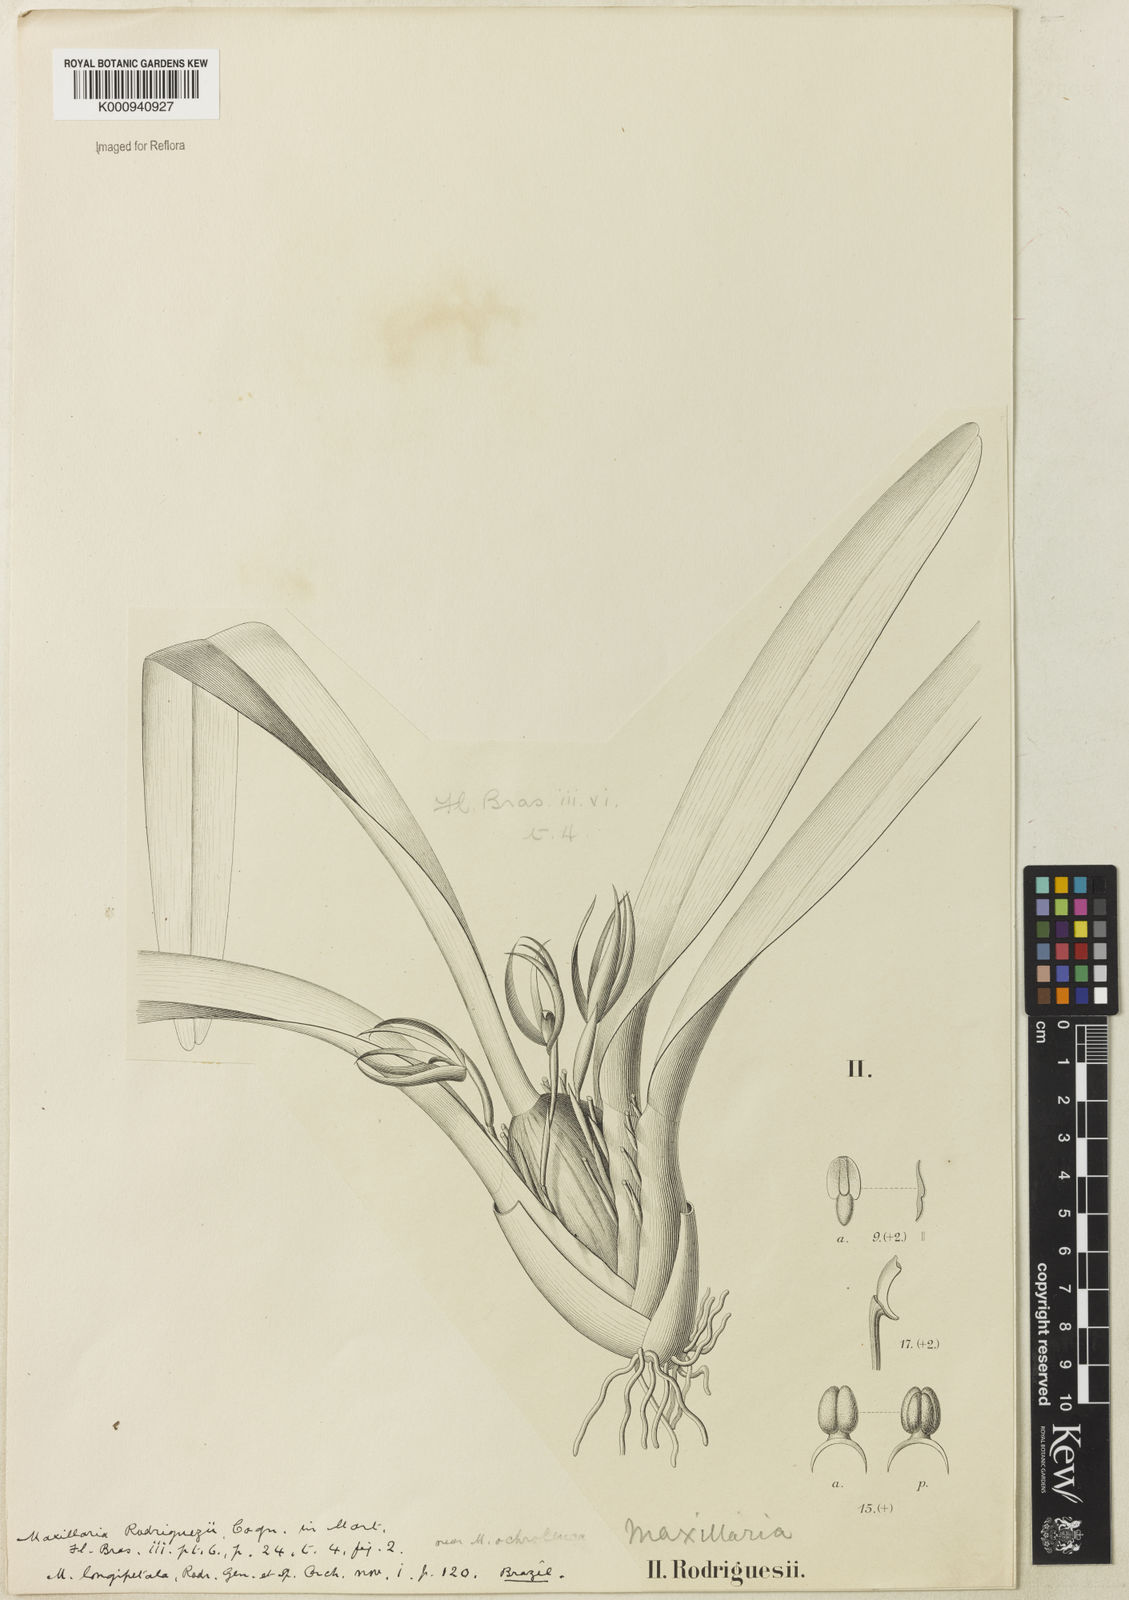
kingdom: Plantae
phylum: Tracheophyta
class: Liliopsida
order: Asparagales
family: Orchidaceae
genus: Maxillaria
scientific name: Maxillaria rodriguesii
